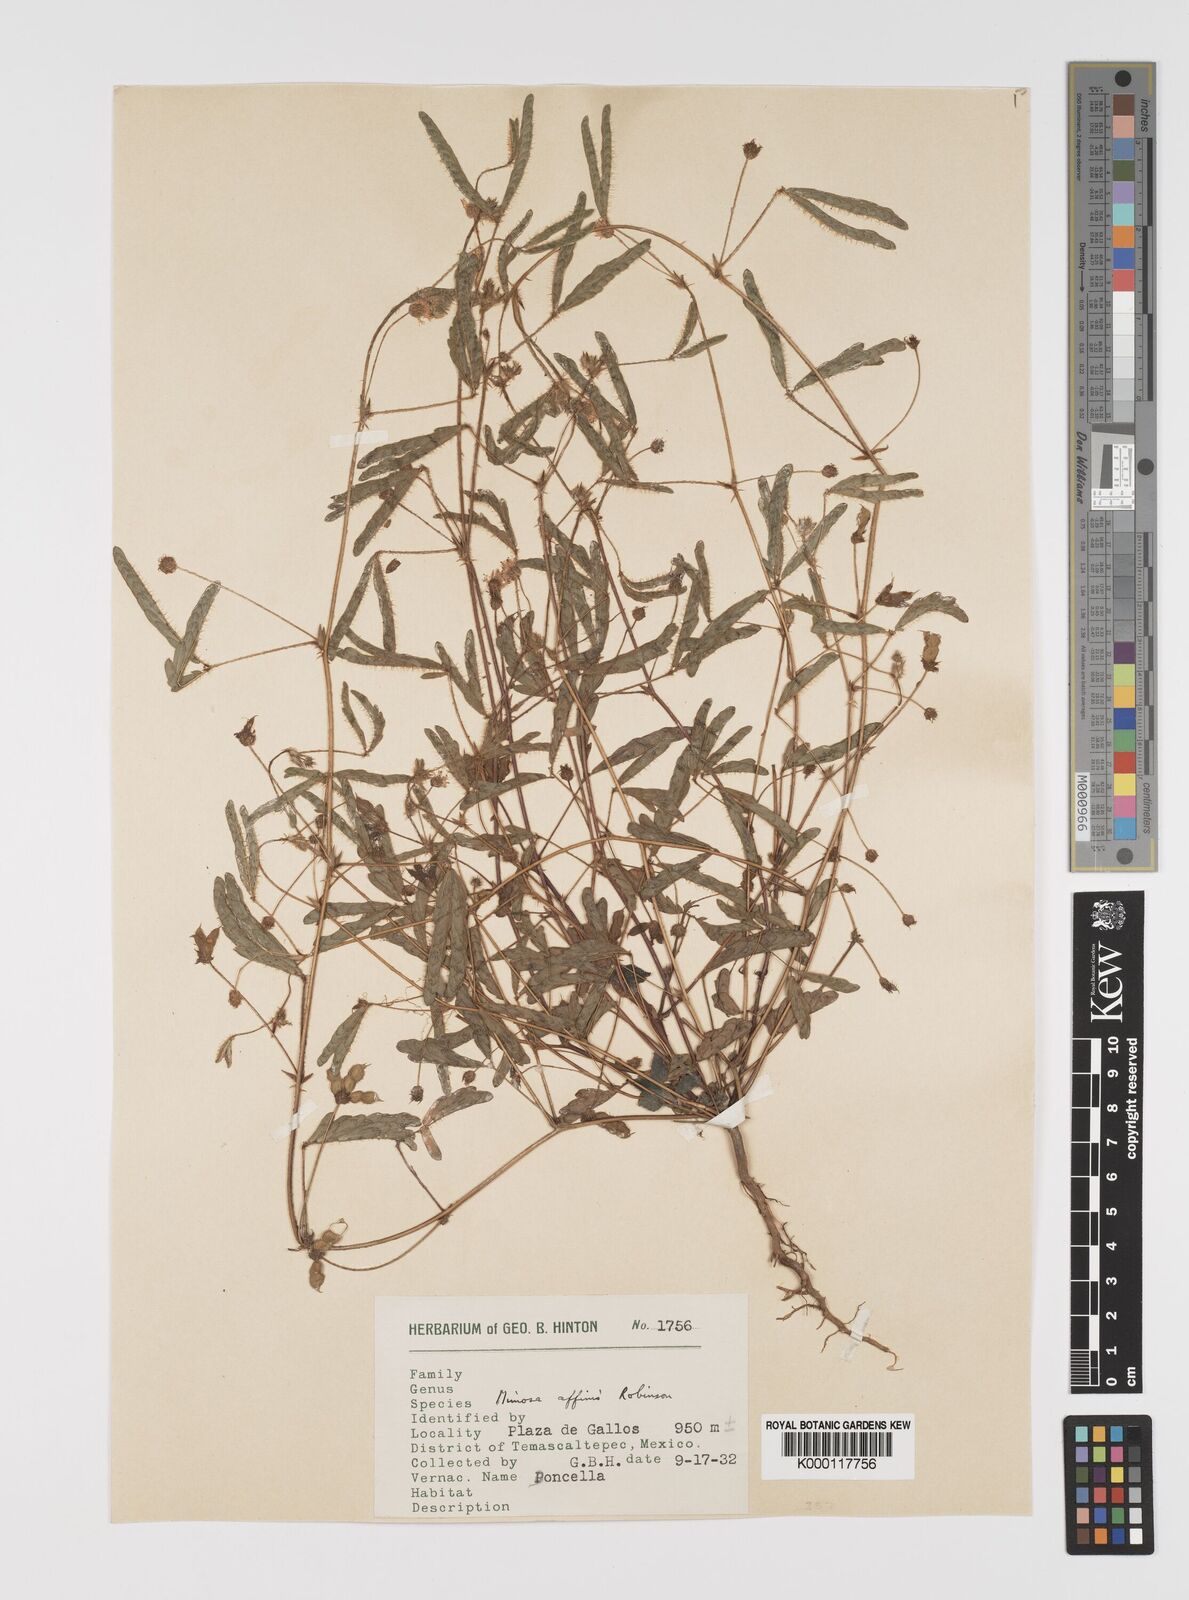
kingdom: Plantae
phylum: Tracheophyta
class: Magnoliopsida
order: Fabales
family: Fabaceae
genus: Mimosa
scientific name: Mimosa affinis
